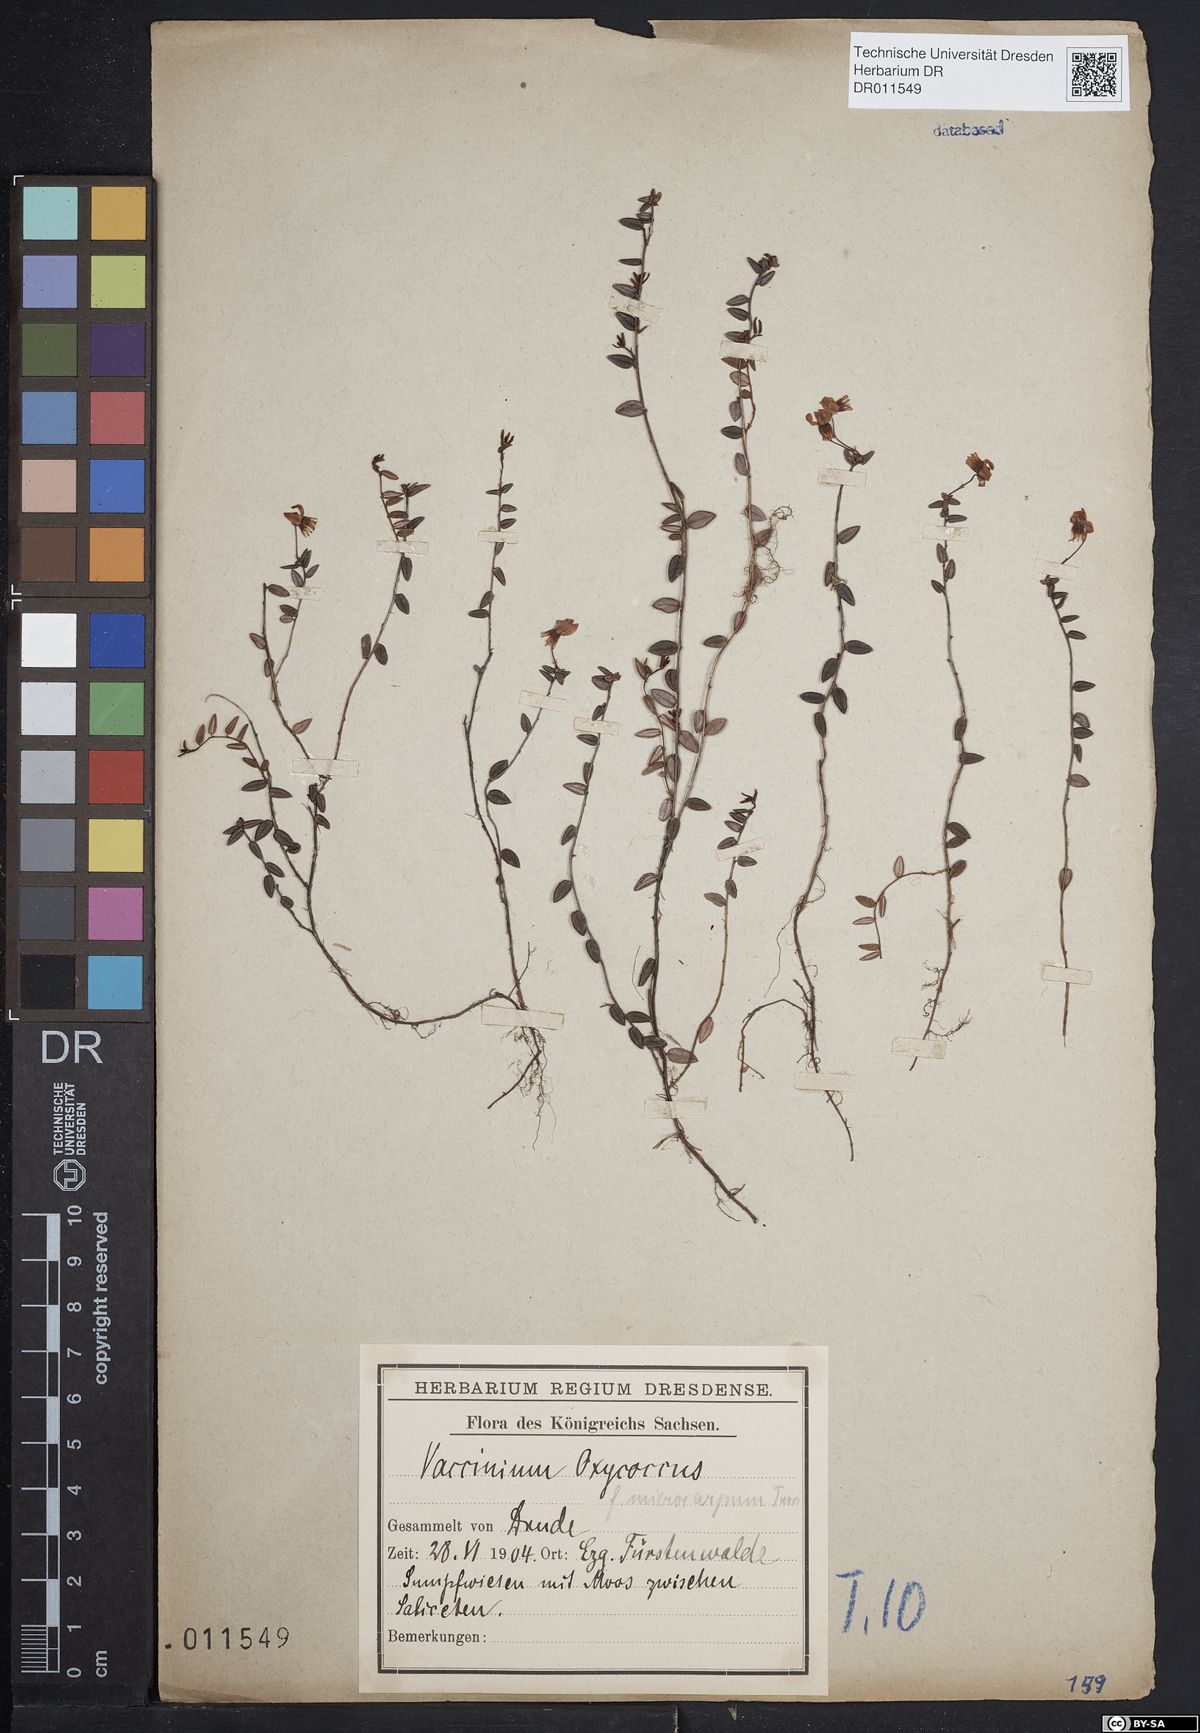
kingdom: Plantae
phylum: Tracheophyta
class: Magnoliopsida
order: Ericales
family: Ericaceae
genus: Vaccinium
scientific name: Vaccinium oxycoccos
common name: Cranberry
